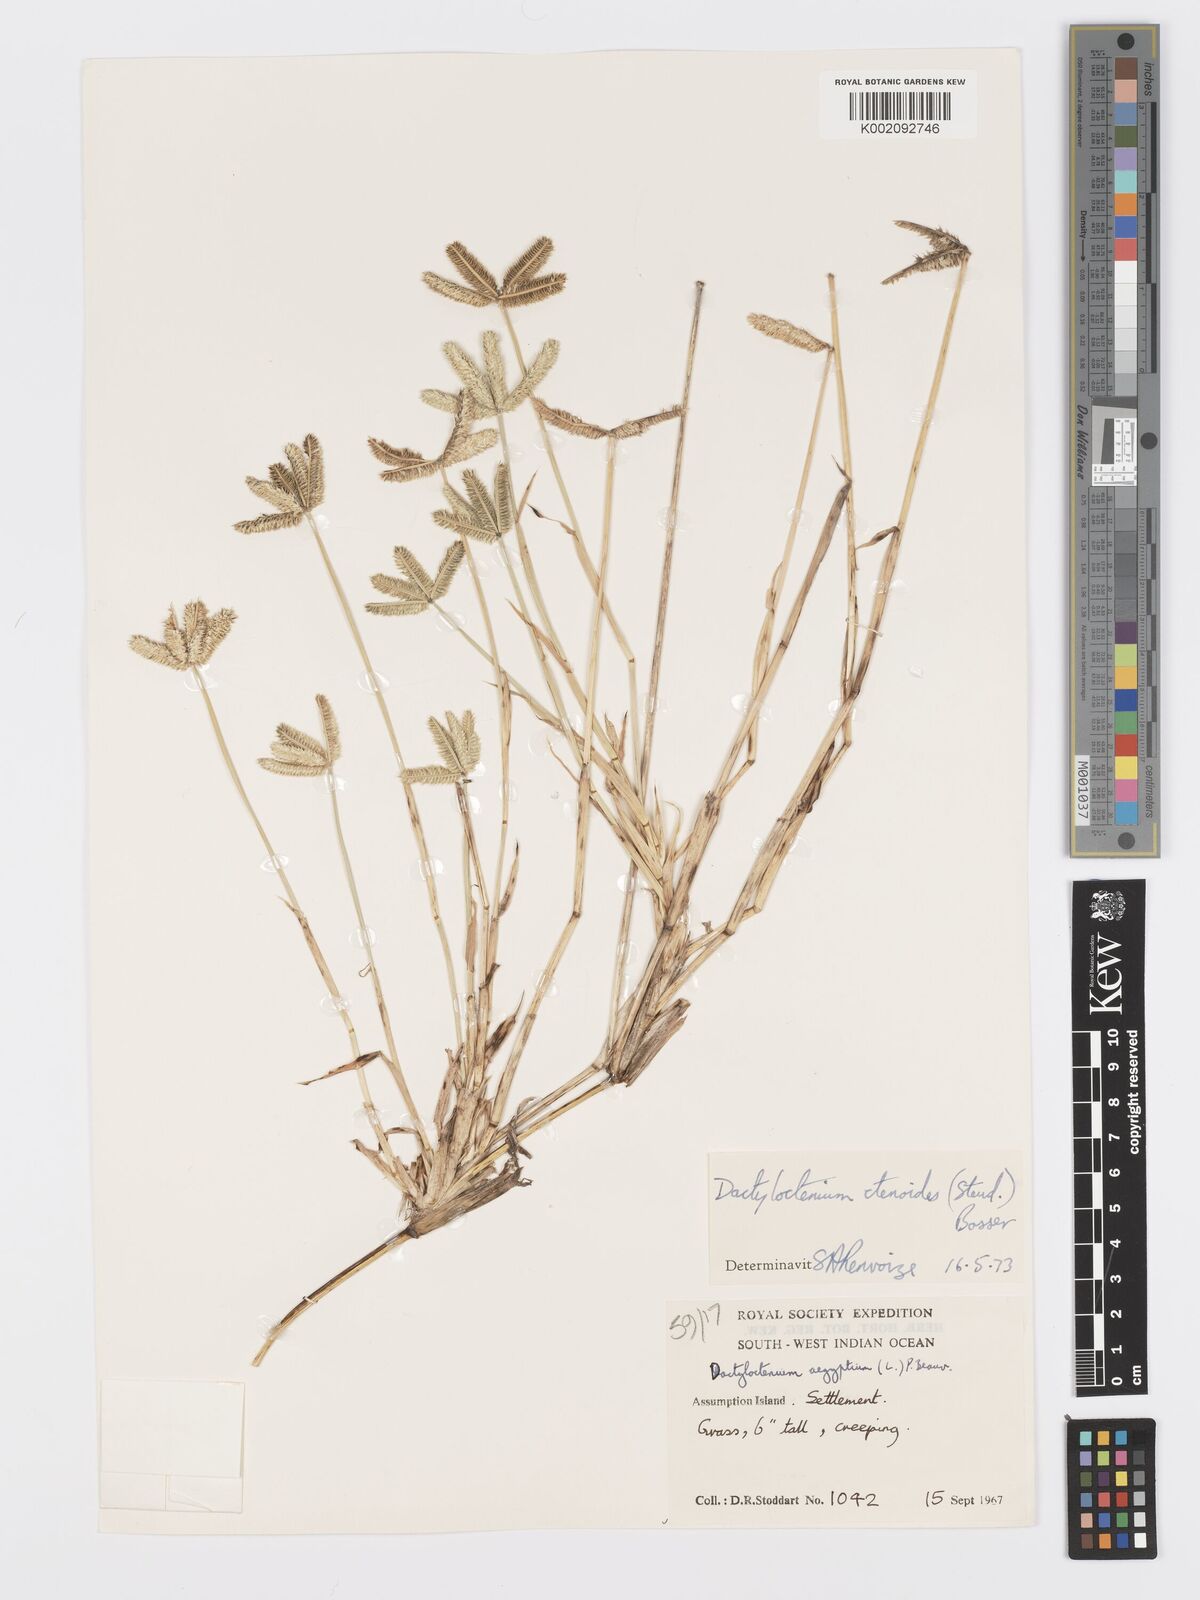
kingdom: Plantae
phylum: Tracheophyta
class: Liliopsida
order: Poales
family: Poaceae
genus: Dactyloctenium
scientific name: Dactyloctenium ctenoides
